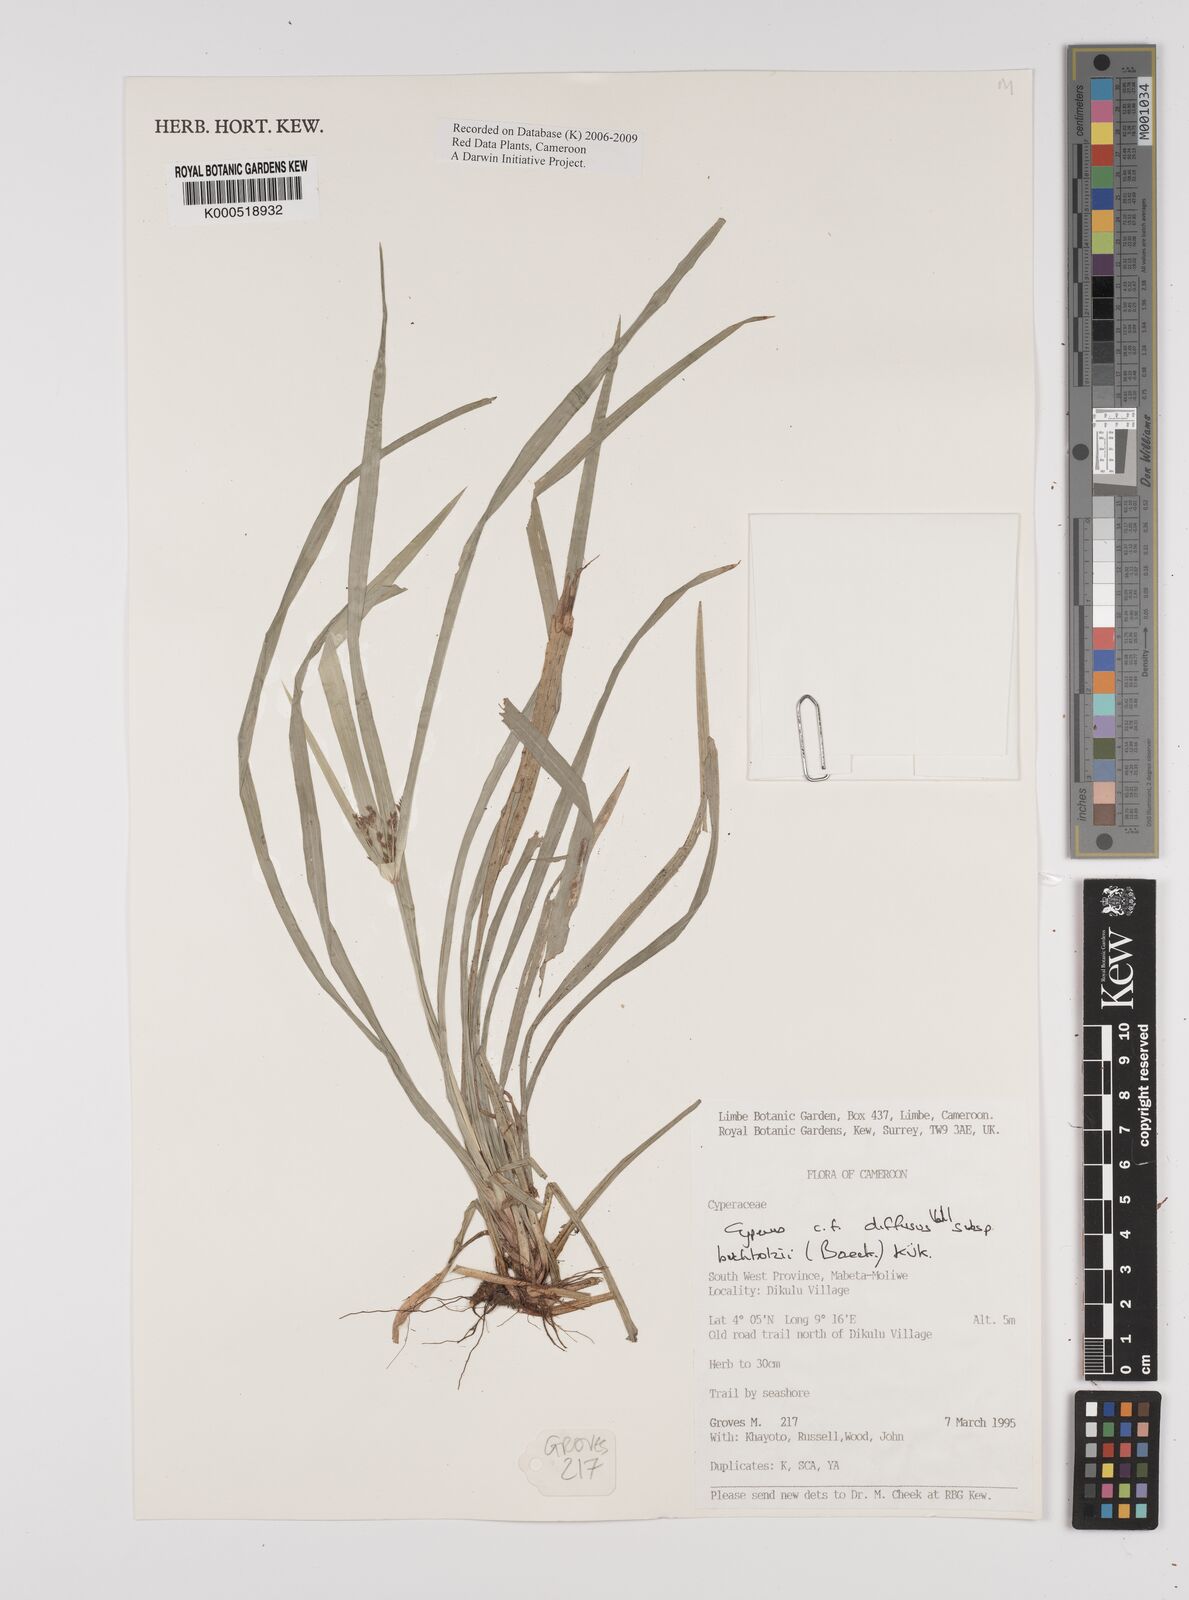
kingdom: Plantae
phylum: Tracheophyta
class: Liliopsida
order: Poales
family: Cyperaceae
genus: Cyperus
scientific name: Cyperus laxus
